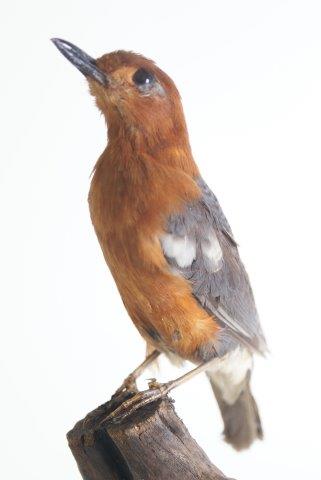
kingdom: Animalia
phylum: Chordata
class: Aves
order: Passeriformes
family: Turdidae
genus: Geokichla
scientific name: Geokichla citrina
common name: Orange-headed thrush
